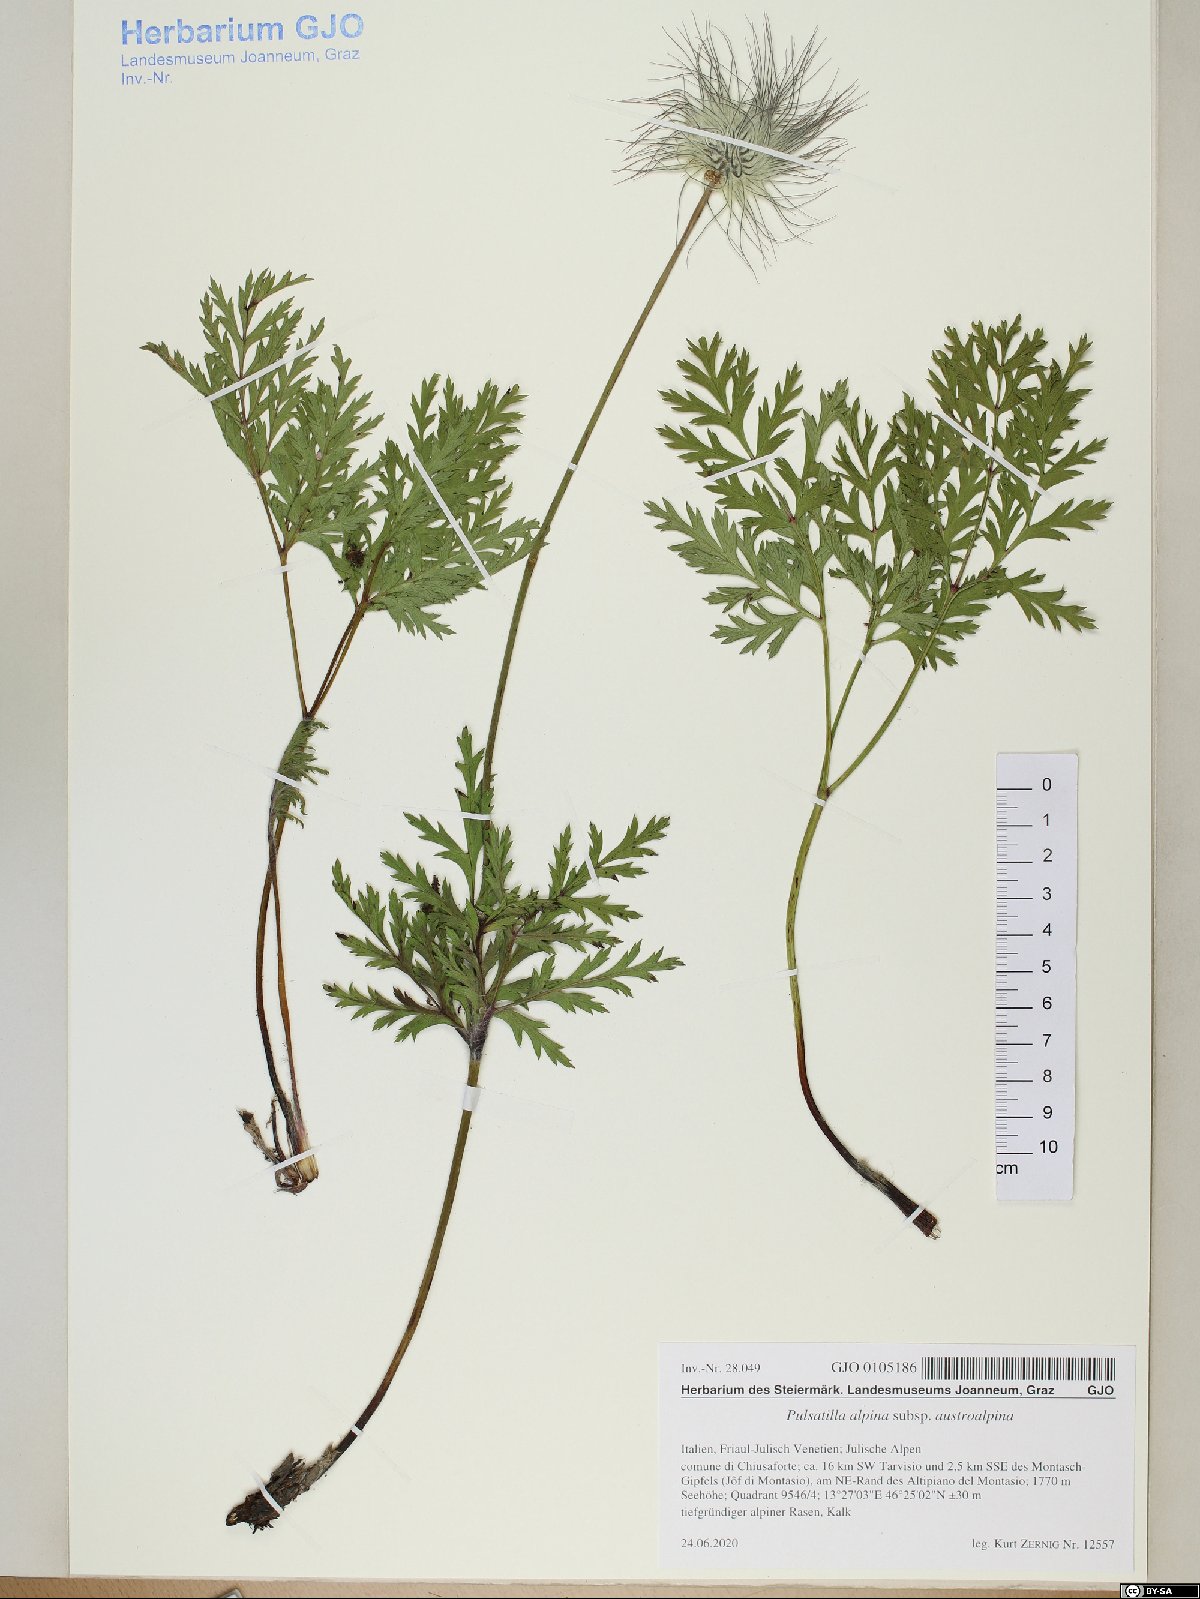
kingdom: Plantae
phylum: Tracheophyta
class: Magnoliopsida
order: Ranunculales
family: Ranunculaceae
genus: Pulsatilla
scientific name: Pulsatilla alpina
